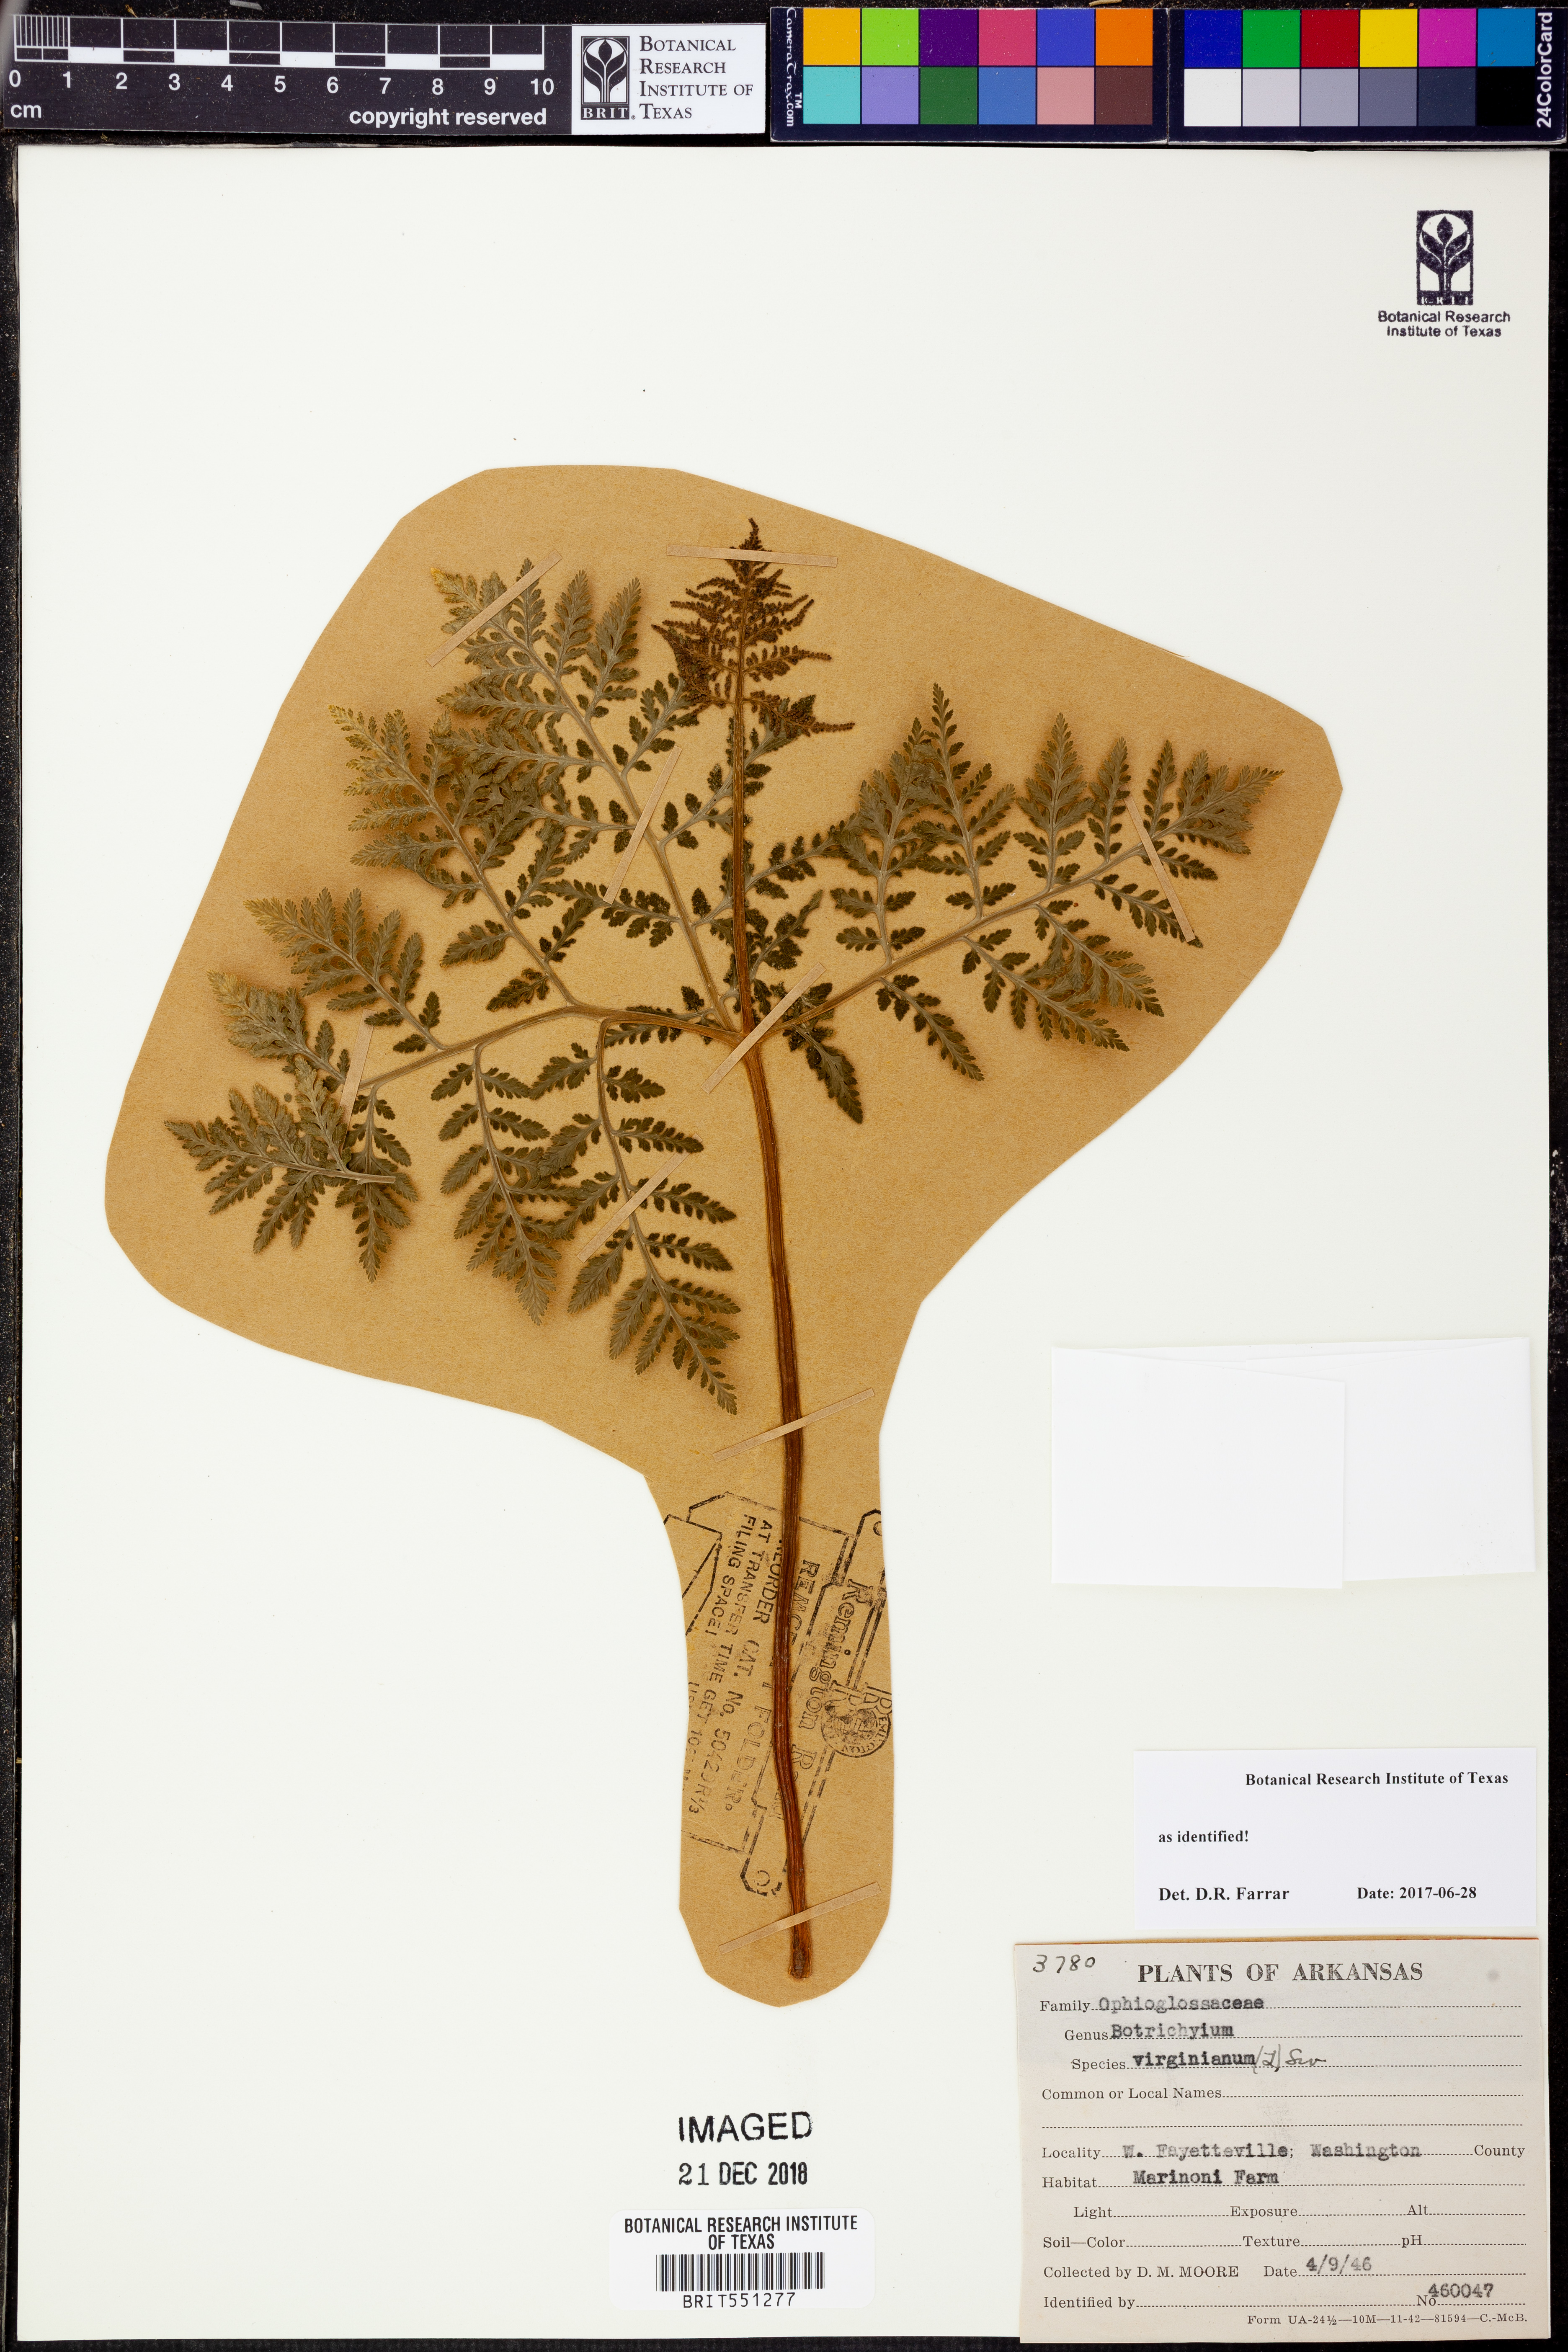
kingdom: Plantae
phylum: Tracheophyta
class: Polypodiopsida
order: Ophioglossales
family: Ophioglossaceae
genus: Botrypus
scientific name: Botrypus virginianus
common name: Common grapefern
